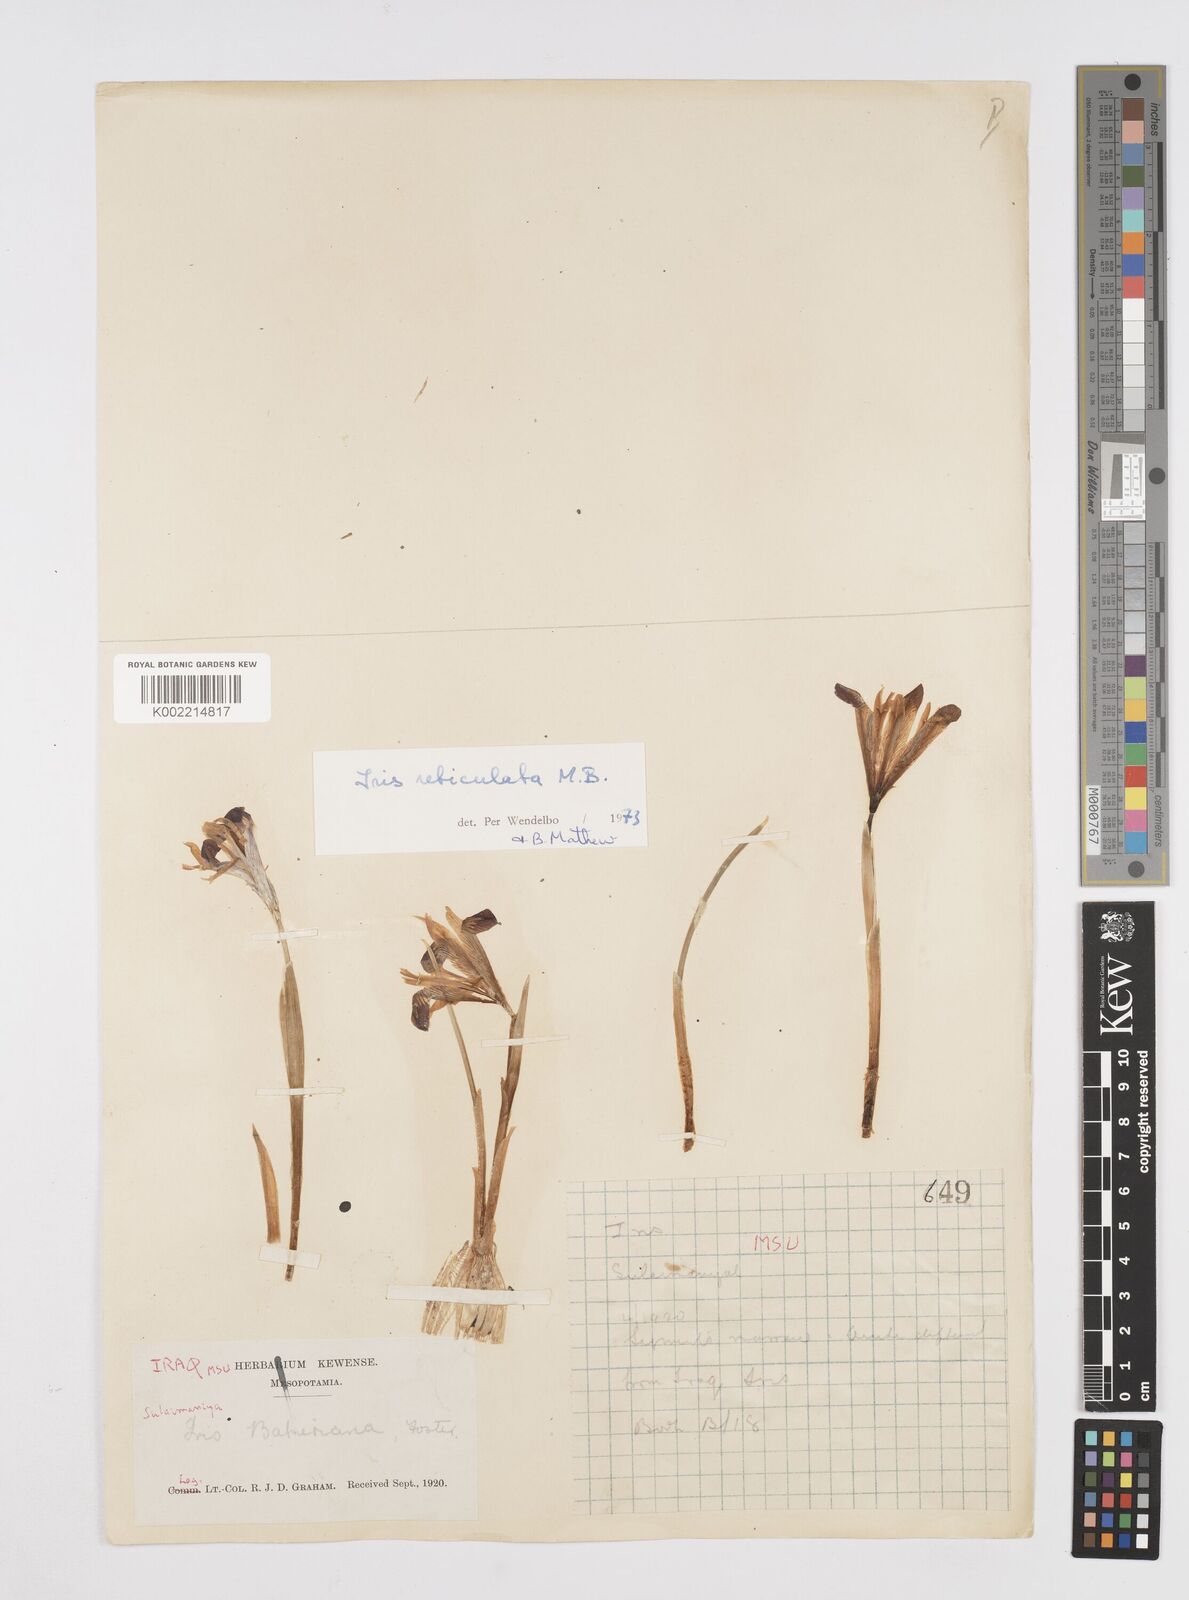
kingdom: Plantae
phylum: Tracheophyta
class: Liliopsida
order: Asparagales
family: Iridaceae
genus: Iris
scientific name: Iris reticulata
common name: Netted iris
